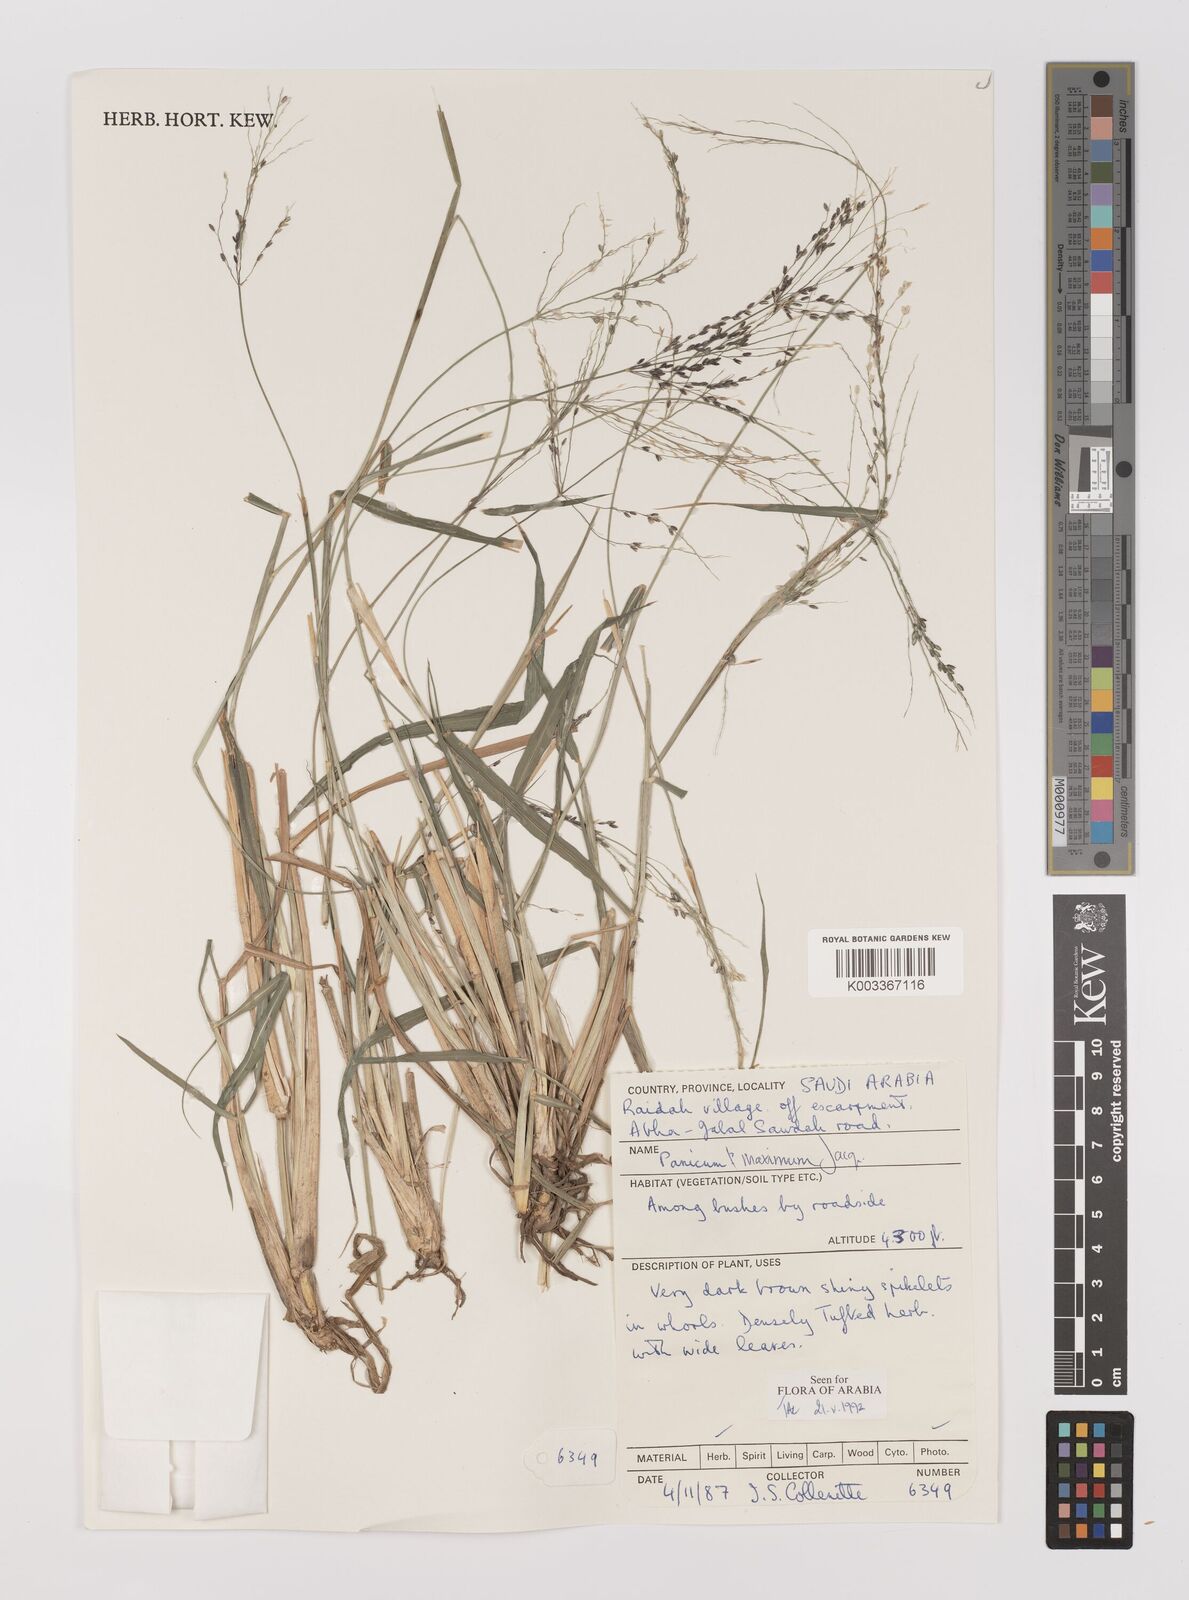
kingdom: Plantae
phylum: Tracheophyta
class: Liliopsida
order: Poales
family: Poaceae
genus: Megathyrsus
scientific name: Megathyrsus maximus
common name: Guineagrass
